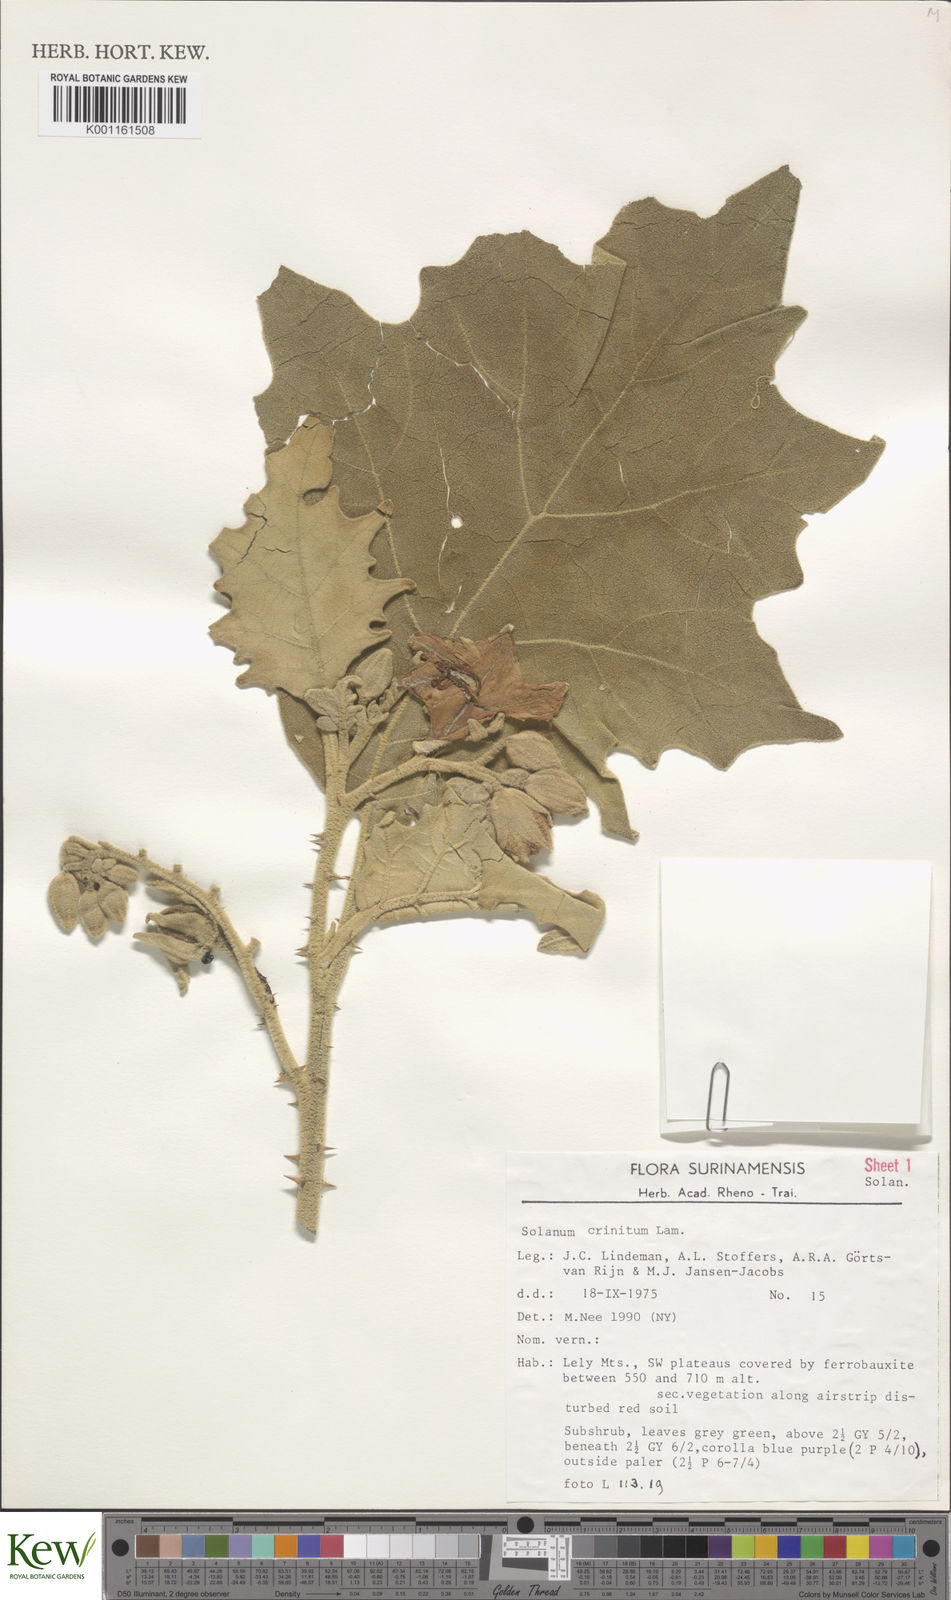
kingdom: Plantae
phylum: Tracheophyta
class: Magnoliopsida
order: Solanales
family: Solanaceae
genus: Solanum
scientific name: Solanum crinitum
